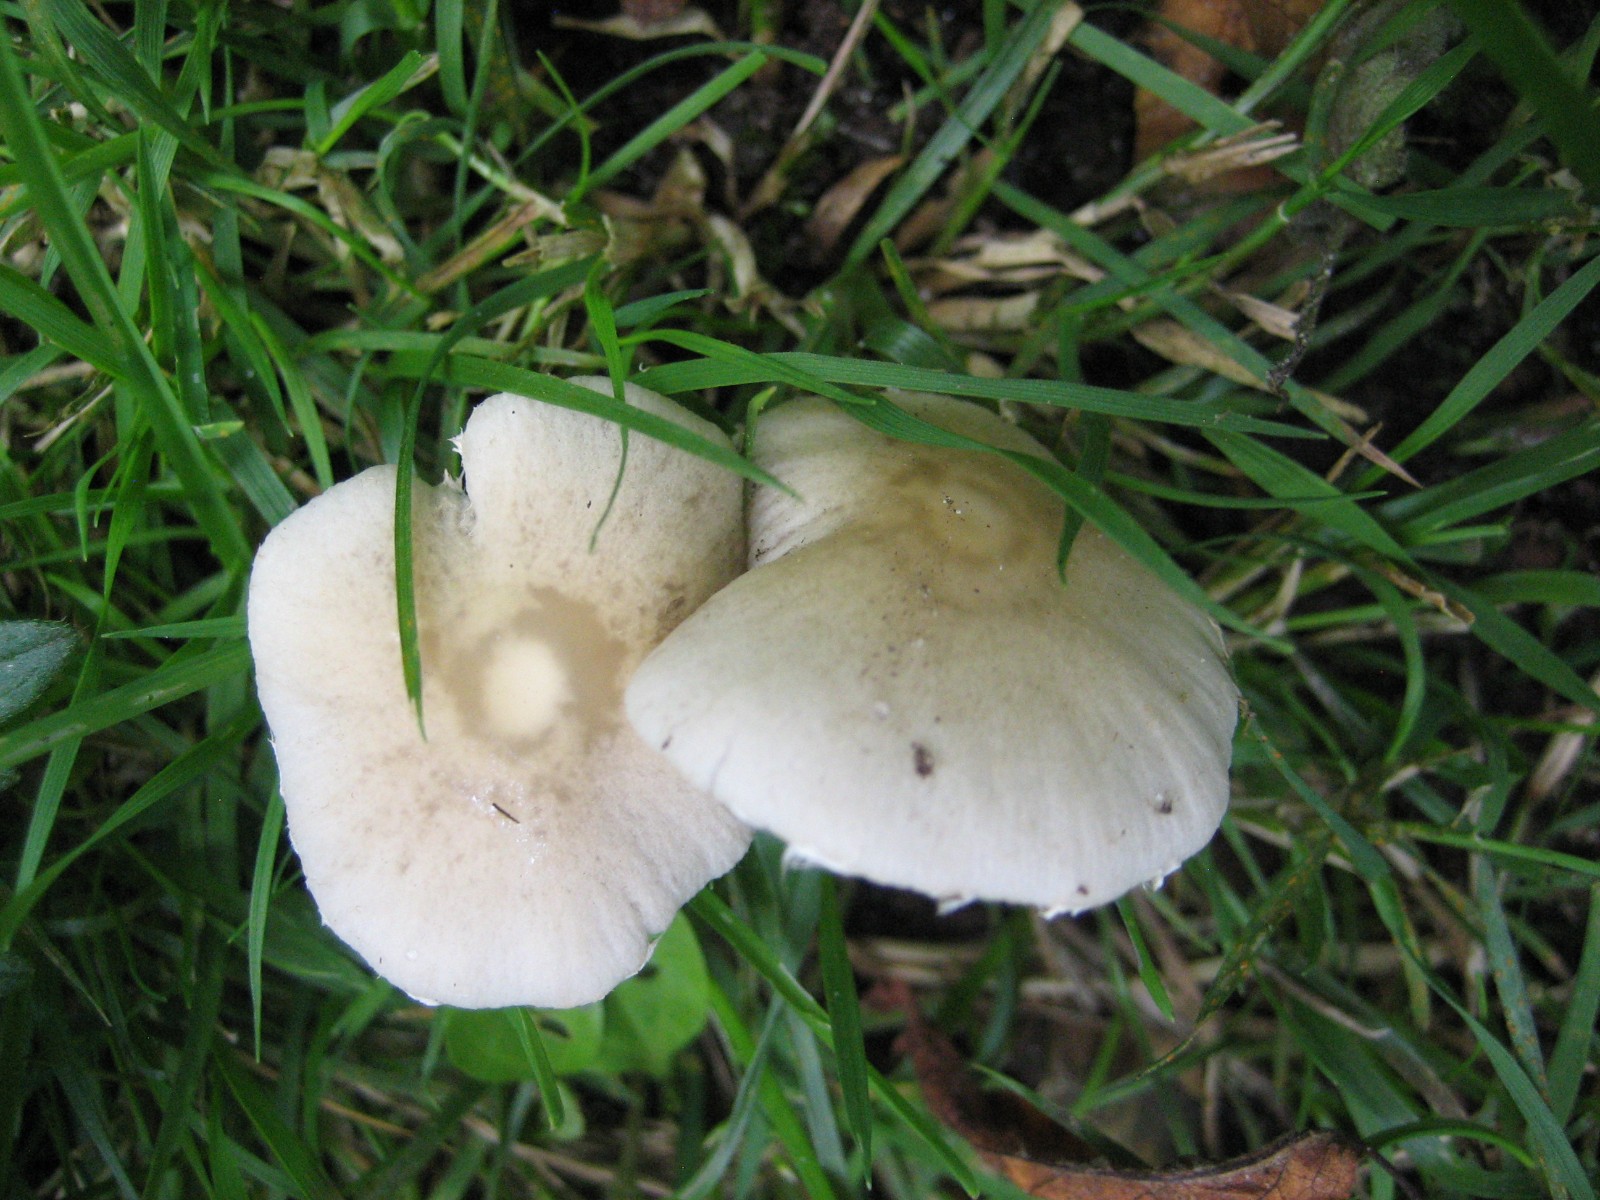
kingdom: Fungi
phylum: Basidiomycota
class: Agaricomycetes
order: Agaricales
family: Psathyrellaceae
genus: Candolleomyces
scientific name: Candolleomyces candolleanus
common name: Candolles mørkhat
